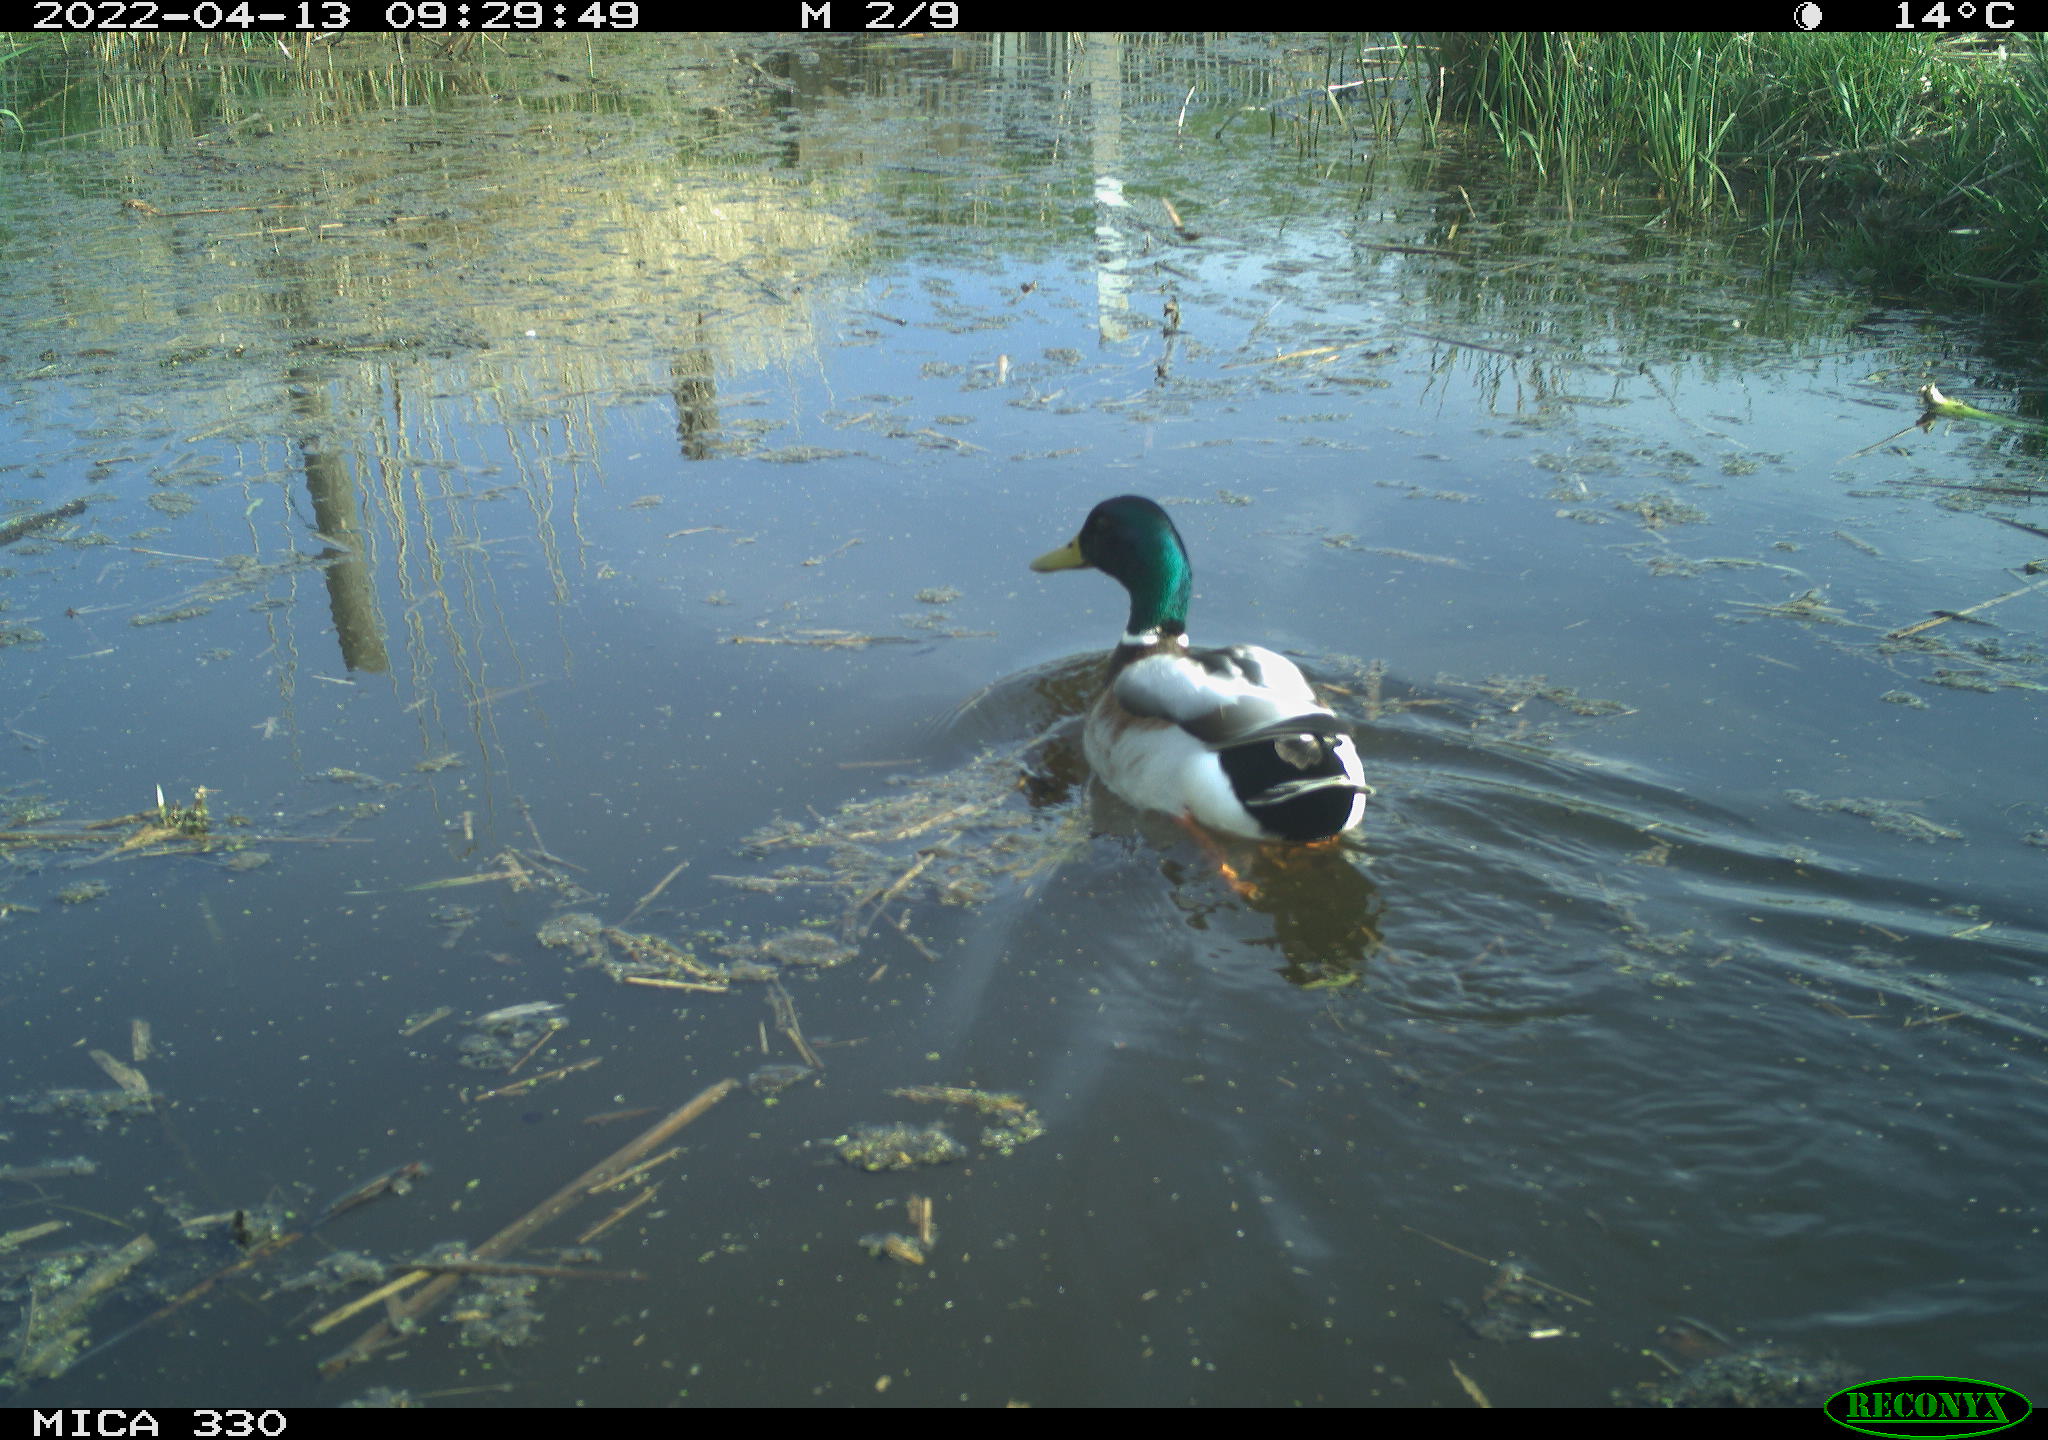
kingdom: Animalia
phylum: Chordata
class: Aves
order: Anseriformes
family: Anatidae
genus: Anas
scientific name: Anas platyrhynchos
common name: Mallard
